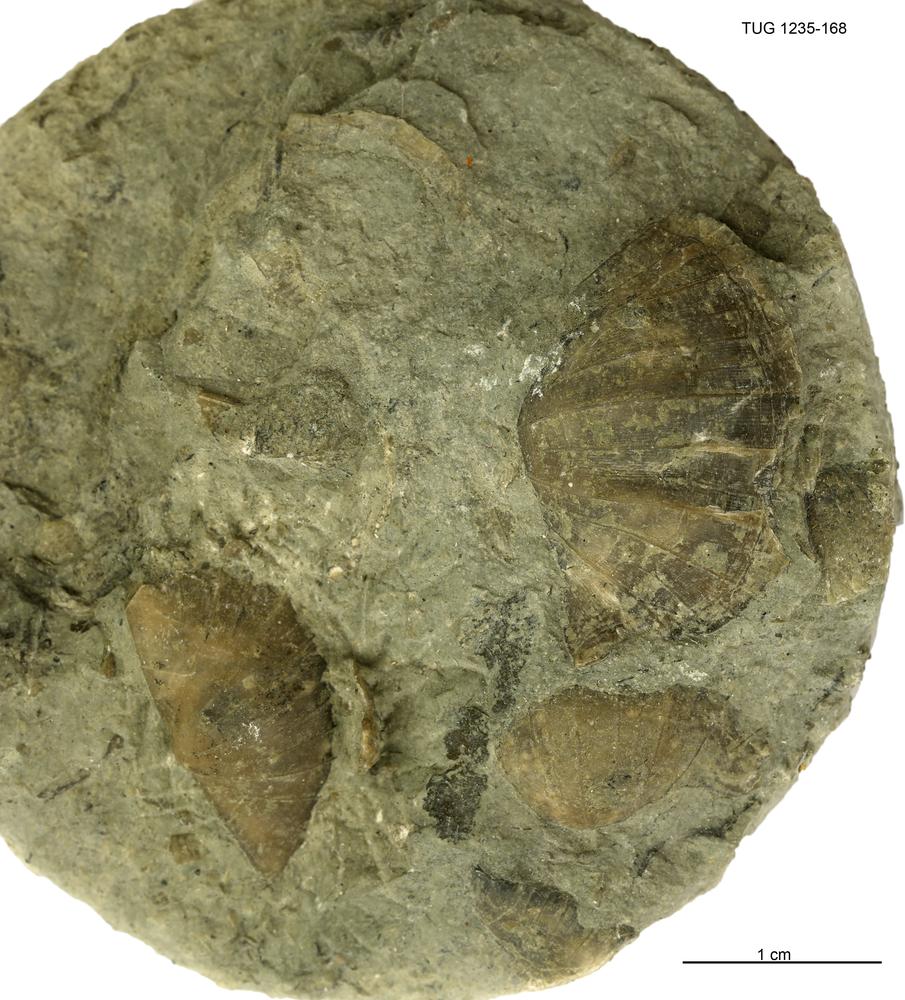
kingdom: Animalia
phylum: Brachiopoda
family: Oldhaminidae
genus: Eoplectodonta
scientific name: Eoplectodonta
